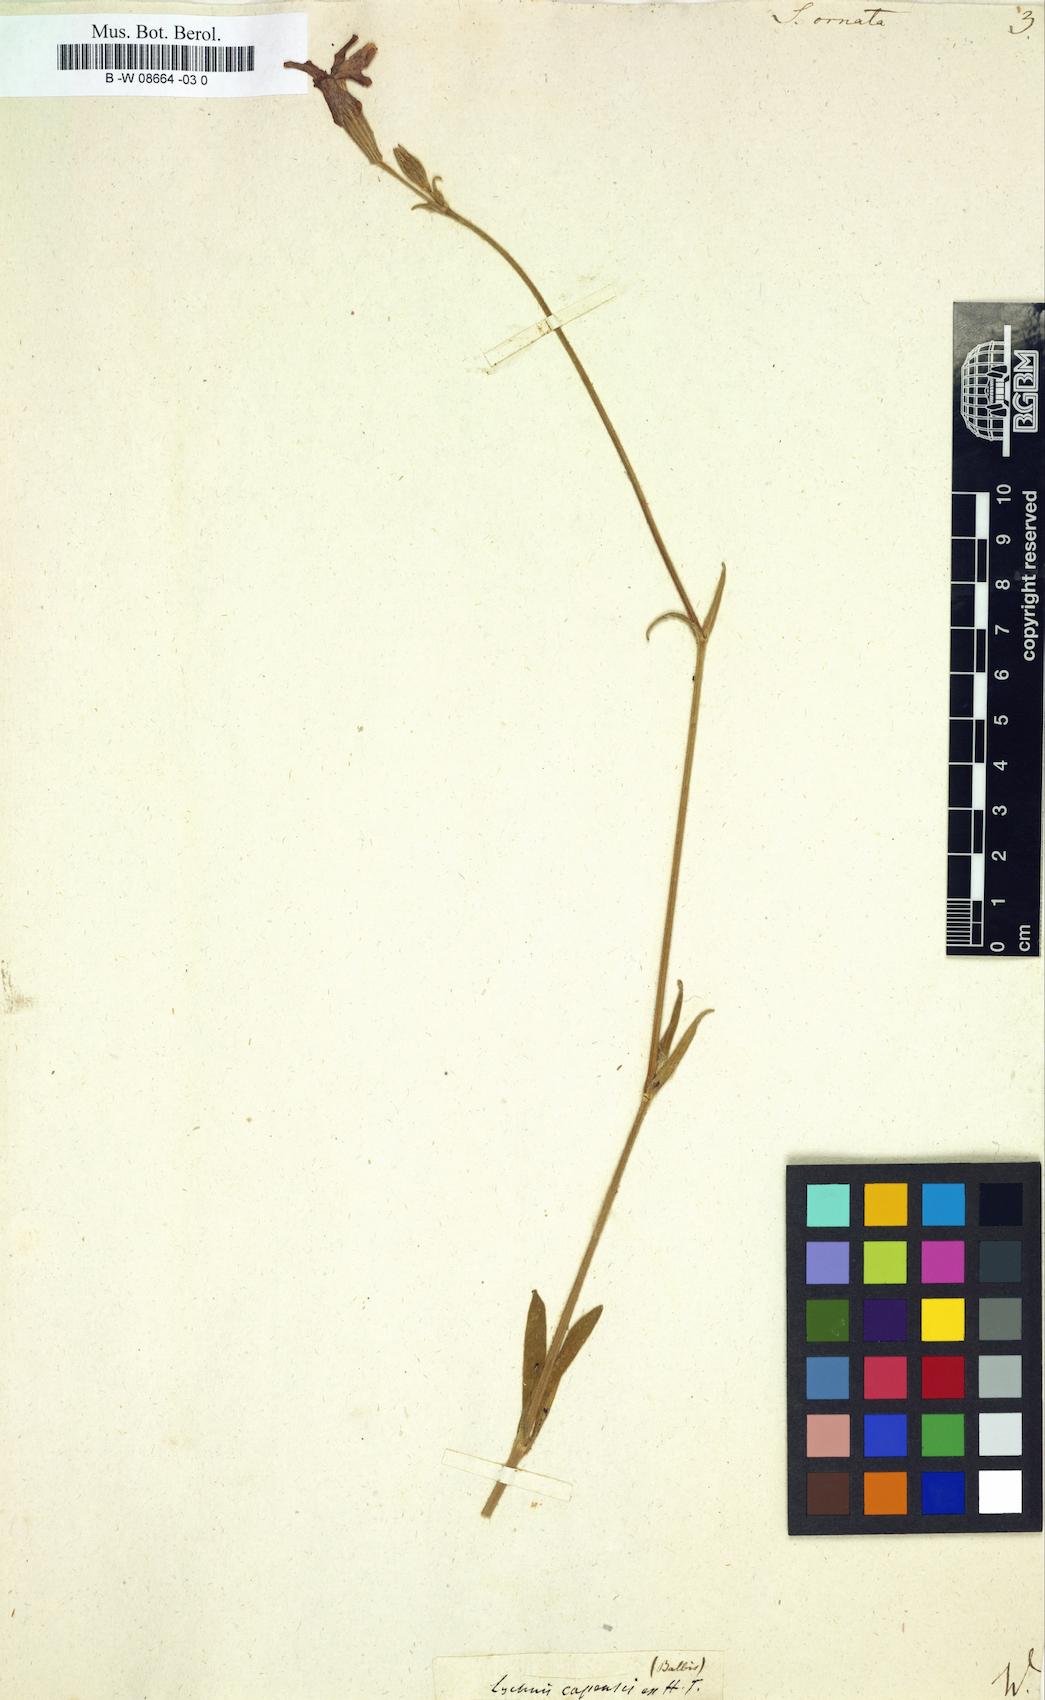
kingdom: Plantae
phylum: Tracheophyta
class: Magnoliopsida
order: Caryophyllales
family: Caryophyllaceae
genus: Silene
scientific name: Silene ornata
